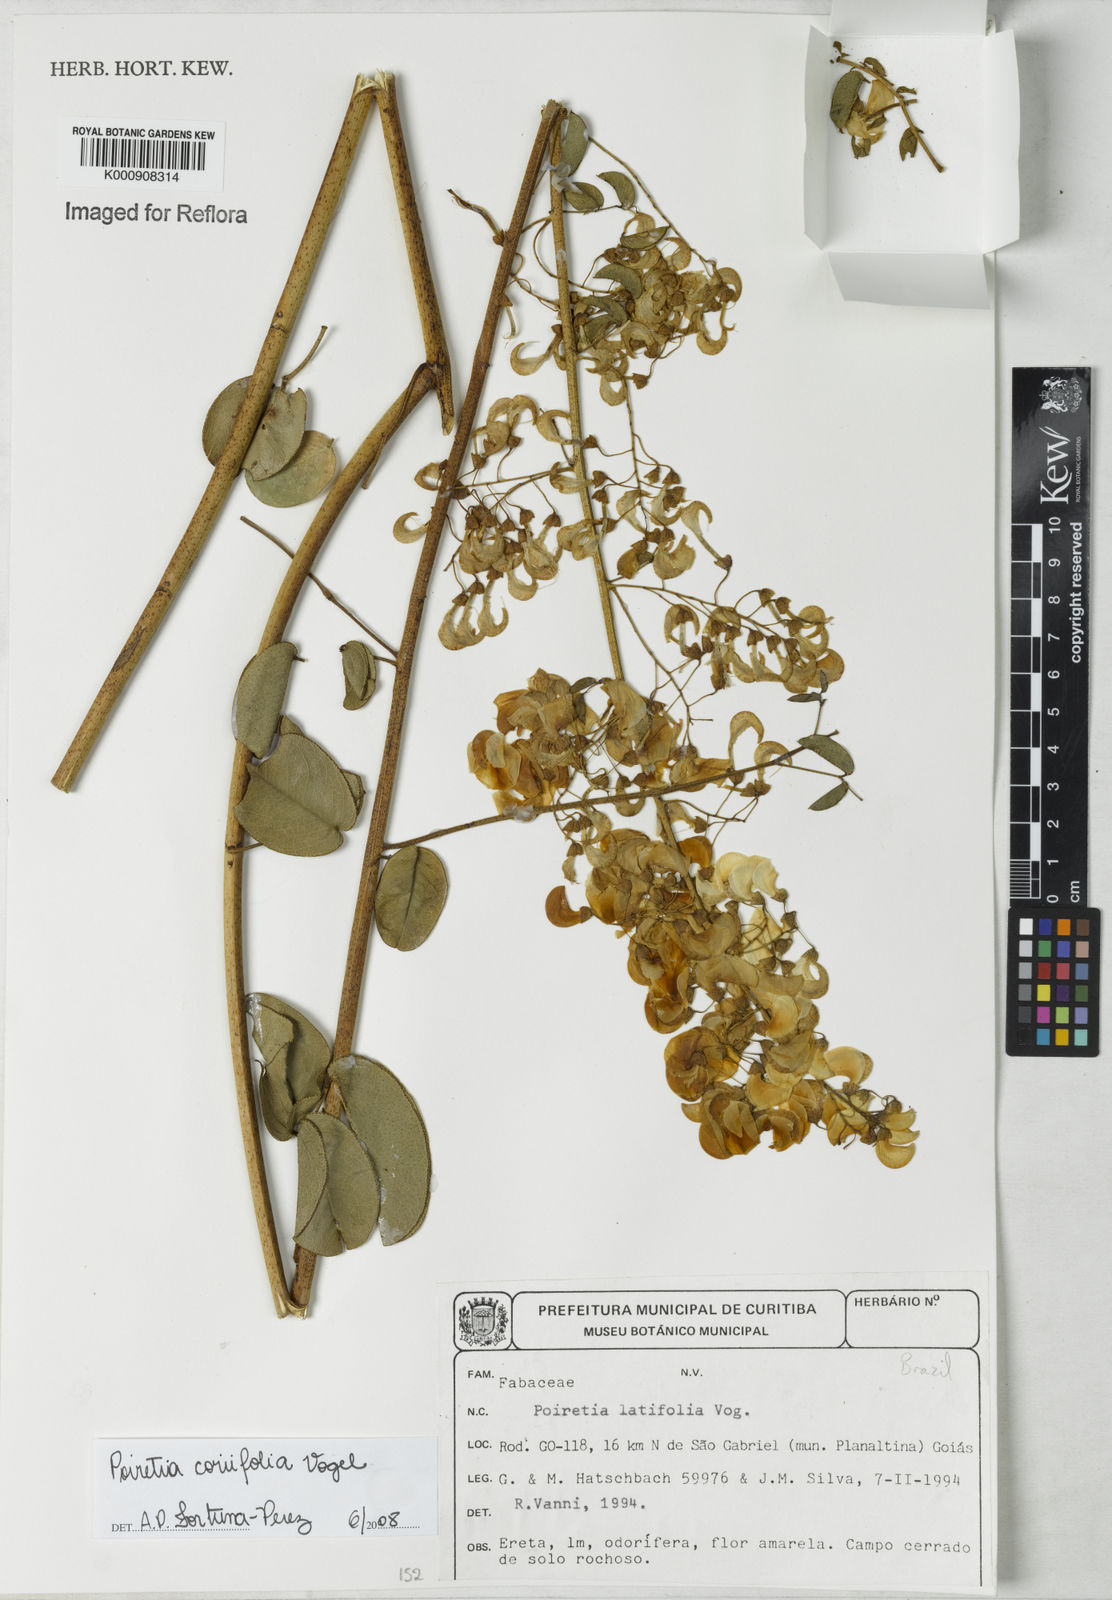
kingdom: Plantae
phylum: Tracheophyta
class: Magnoliopsida
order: Fabales
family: Fabaceae
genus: Poiretia
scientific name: Poiretia coriifolia
